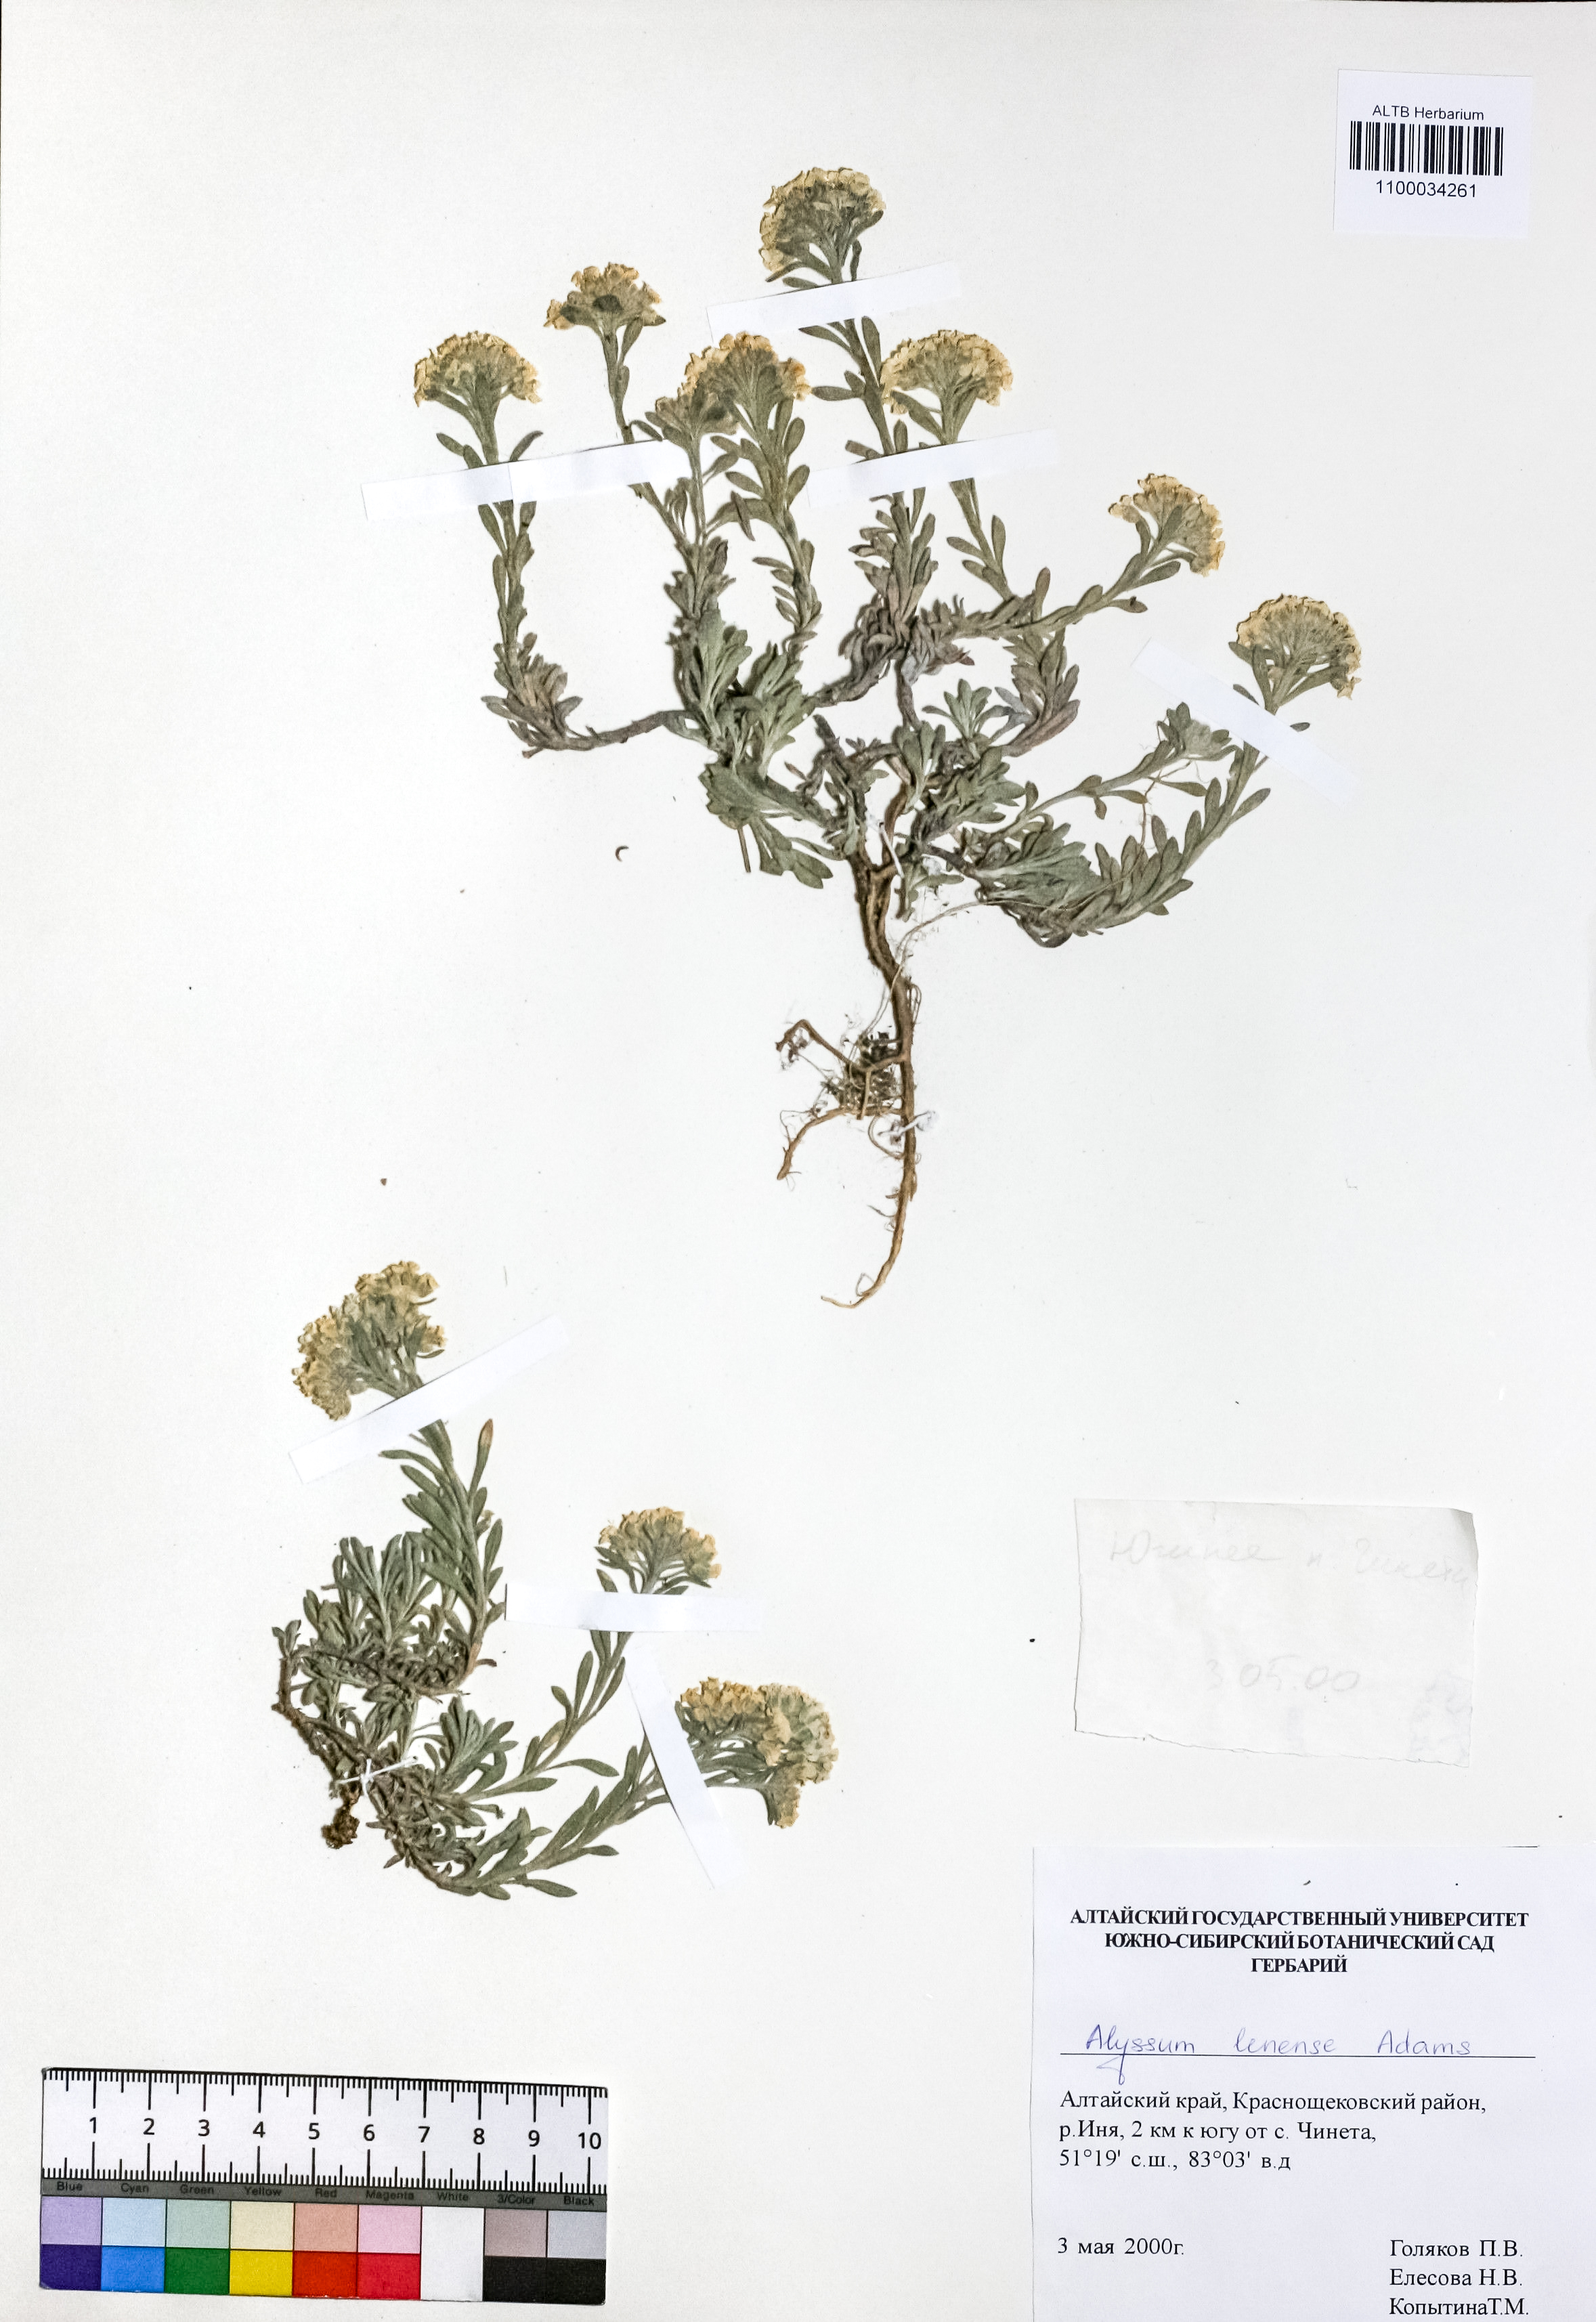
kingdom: Plantae
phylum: Tracheophyta
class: Magnoliopsida
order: Brassicales
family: Brassicaceae
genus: Alyssum
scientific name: Alyssum lenense
